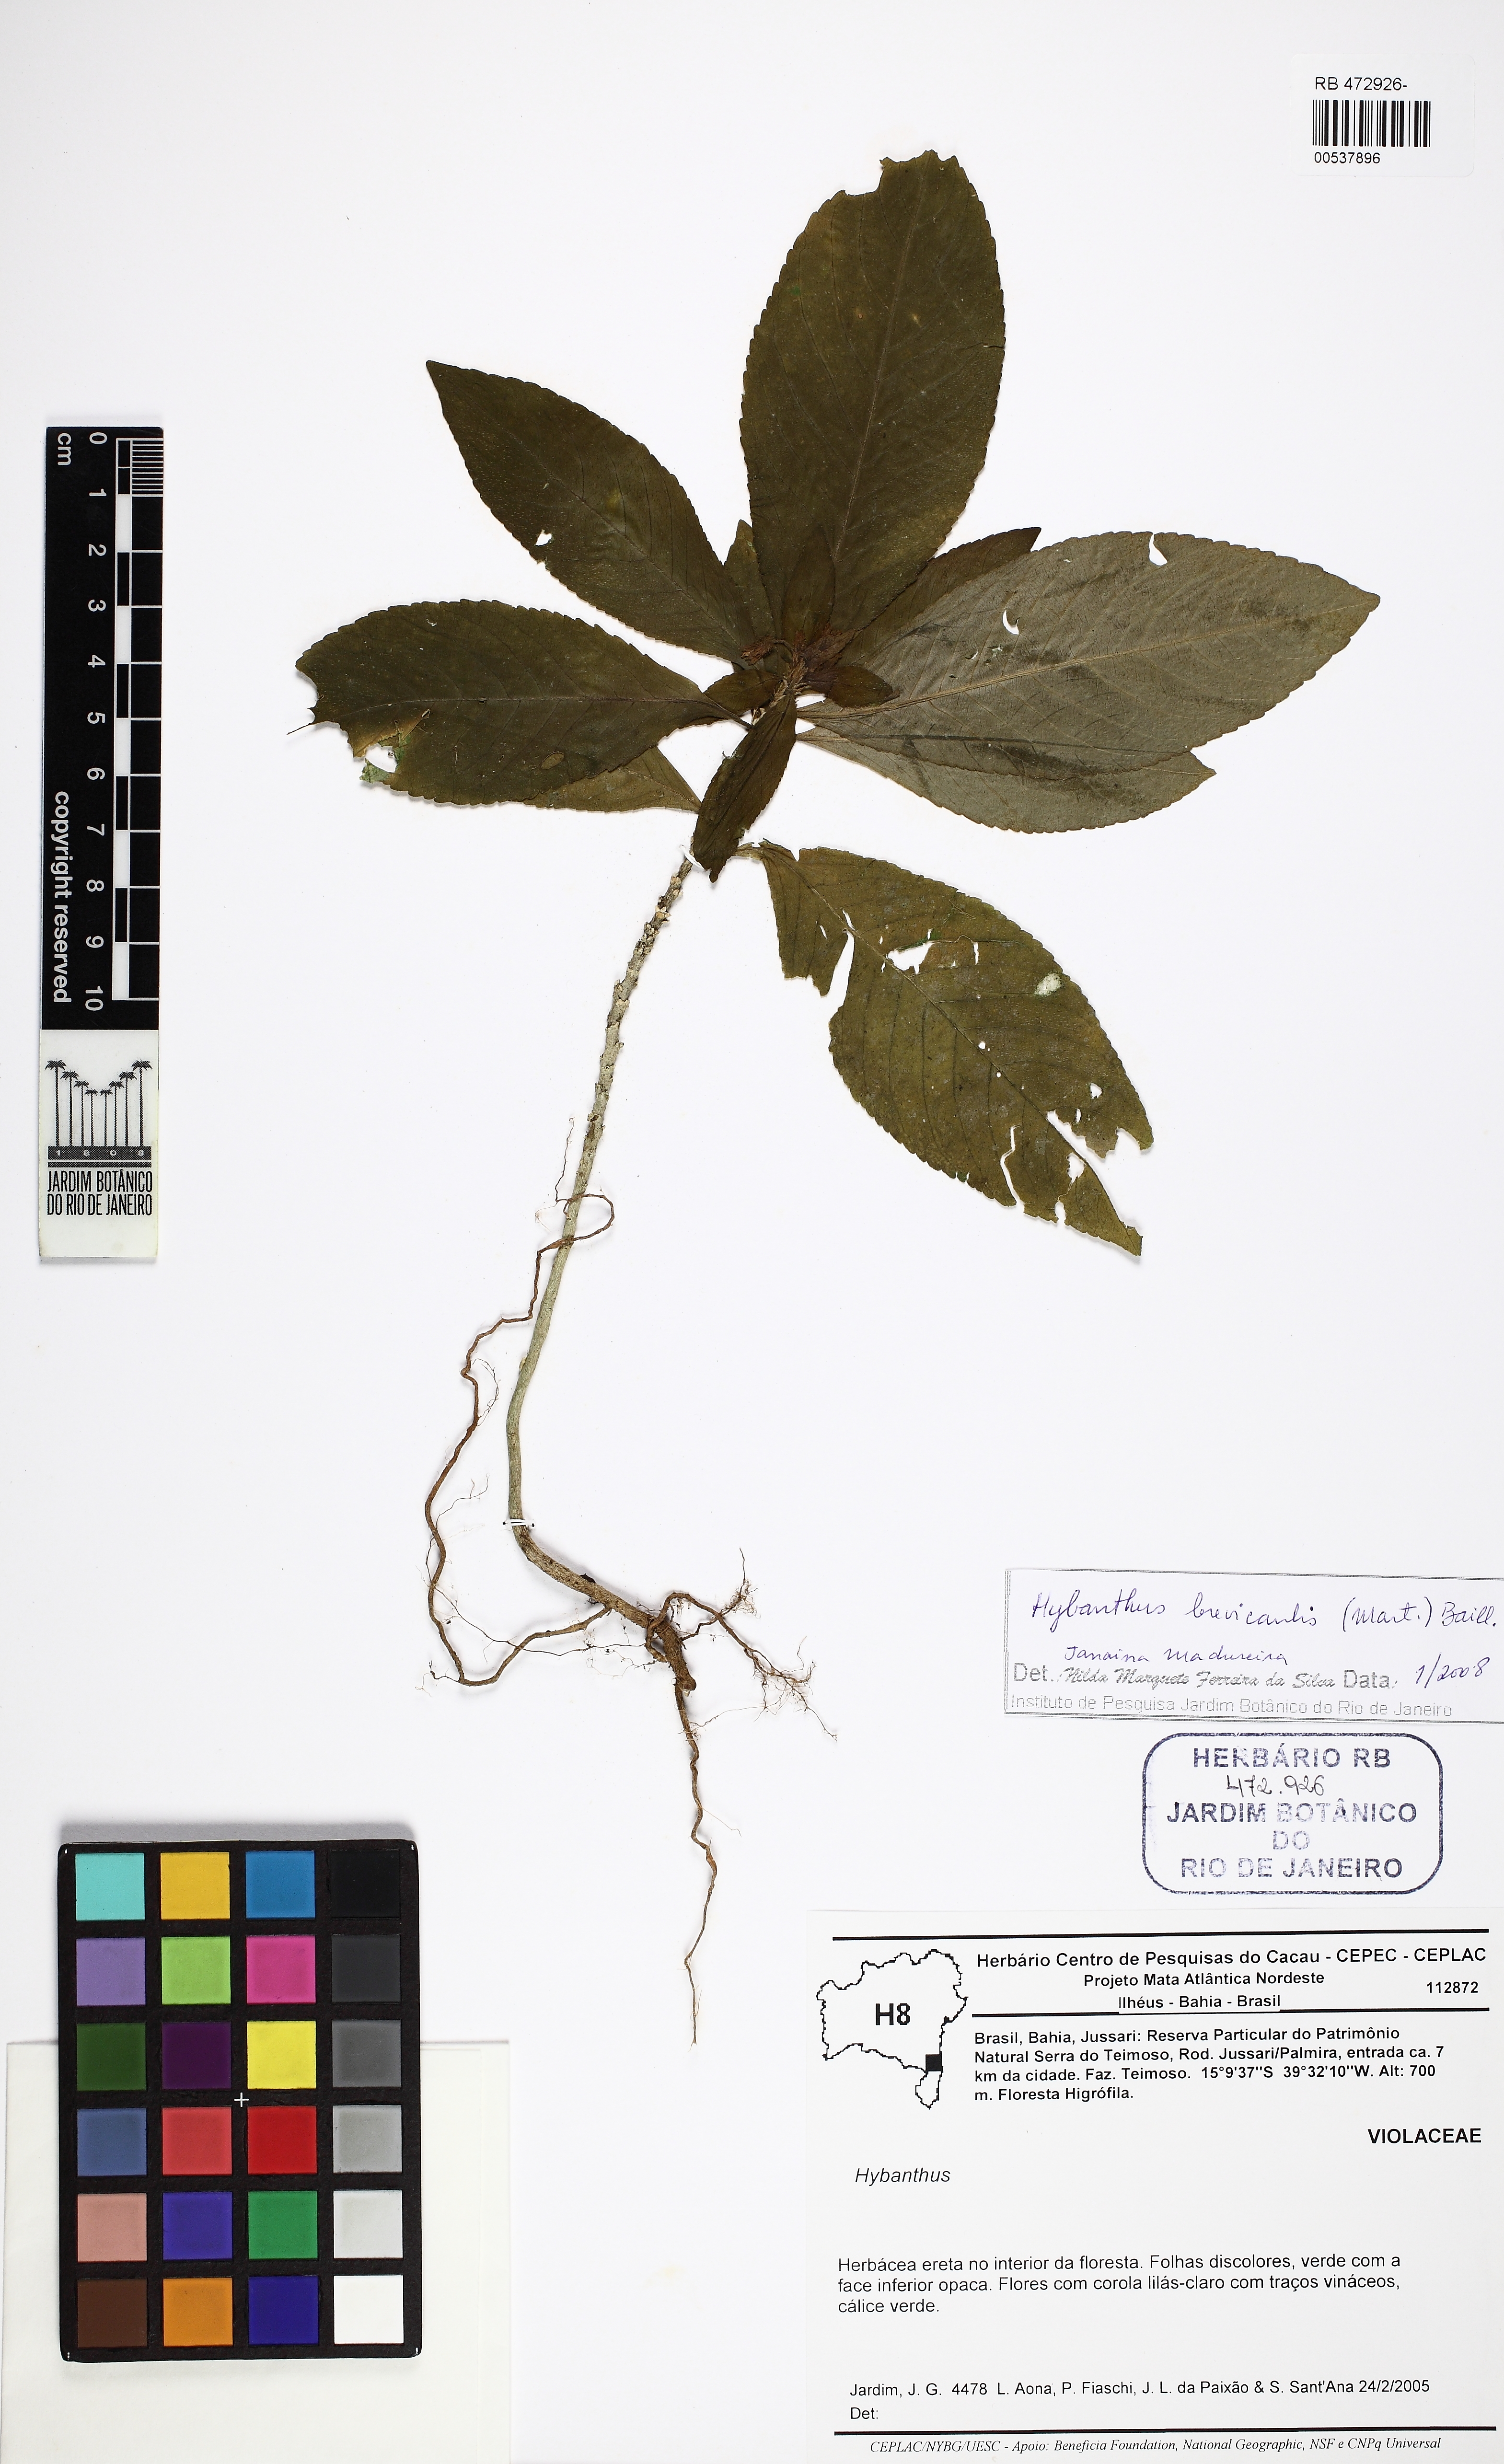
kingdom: Plantae
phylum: Tracheophyta
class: Magnoliopsida
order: Malpighiales
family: Violaceae
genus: Pombalia
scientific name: Pombalia brevicaulis
